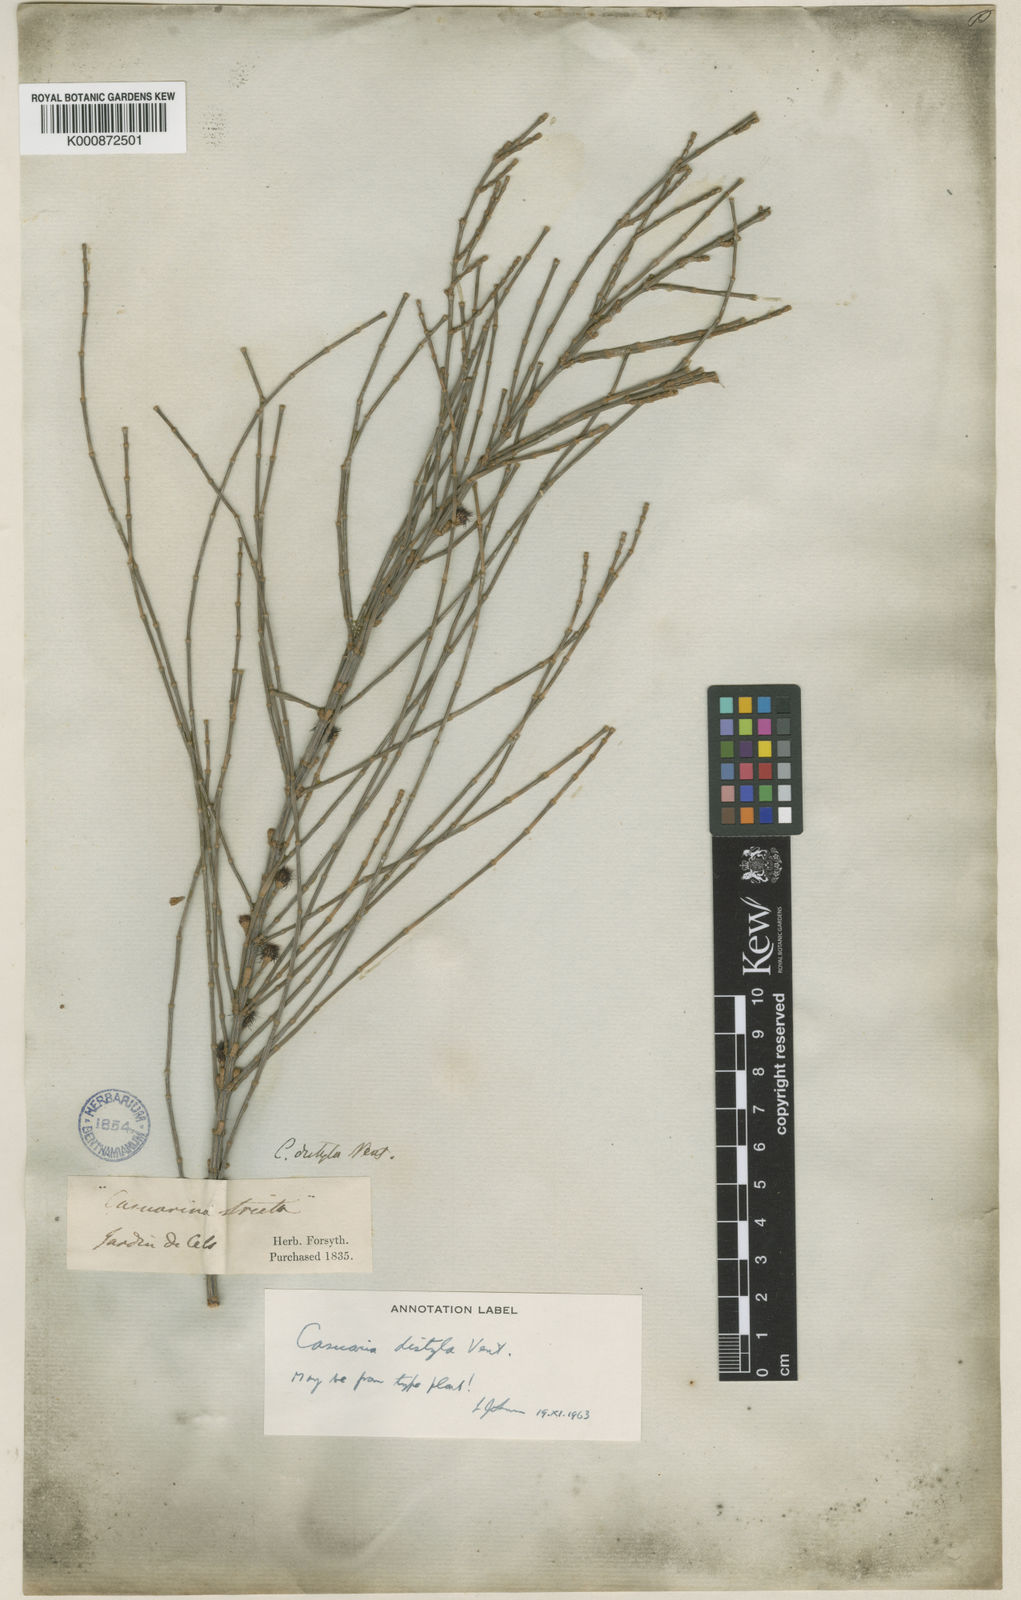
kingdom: Plantae
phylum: Tracheophyta
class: Magnoliopsida
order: Fagales
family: Casuarinaceae
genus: Allocasuarina
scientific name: Allocasuarina distyla
